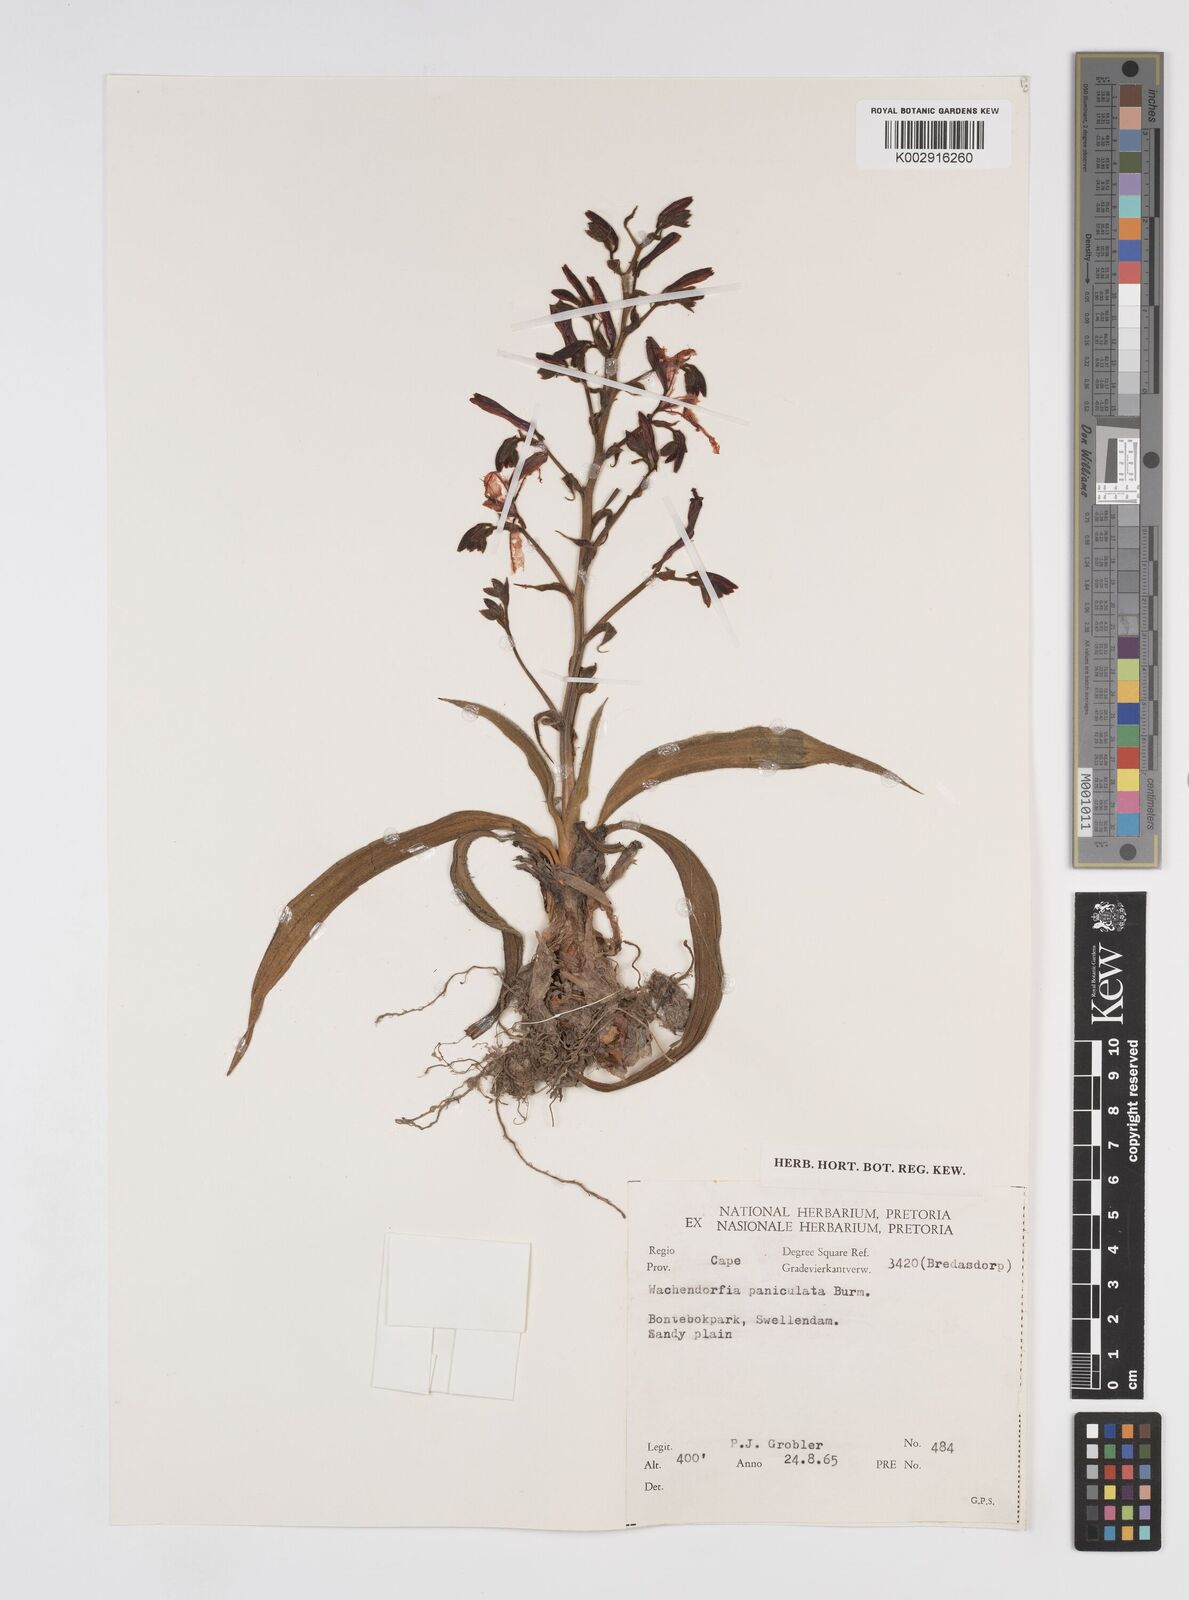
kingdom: Plantae
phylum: Tracheophyta
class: Liliopsida
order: Commelinales
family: Haemodoraceae
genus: Wachendorfia
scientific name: Wachendorfia paniculata
